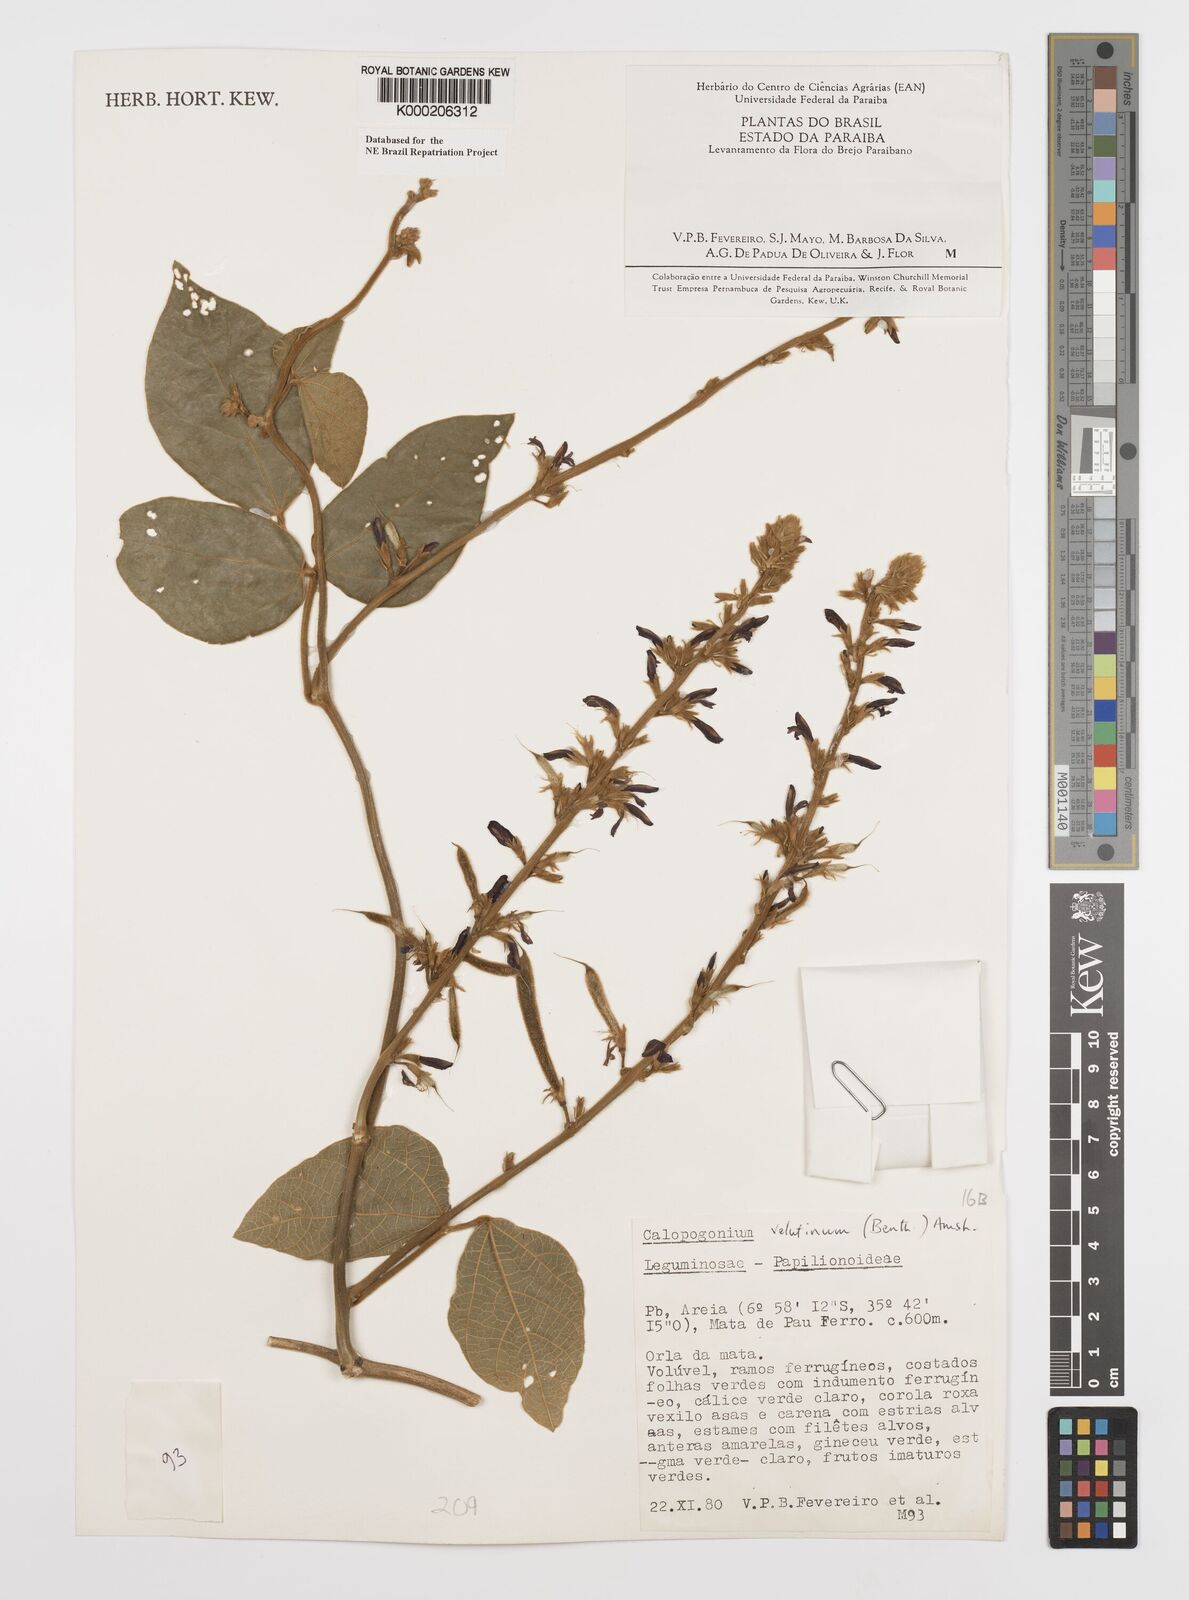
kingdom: Plantae
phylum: Tracheophyta
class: Magnoliopsida
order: Fabales
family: Fabaceae
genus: Calopogonium
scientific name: Calopogonium velutinum
